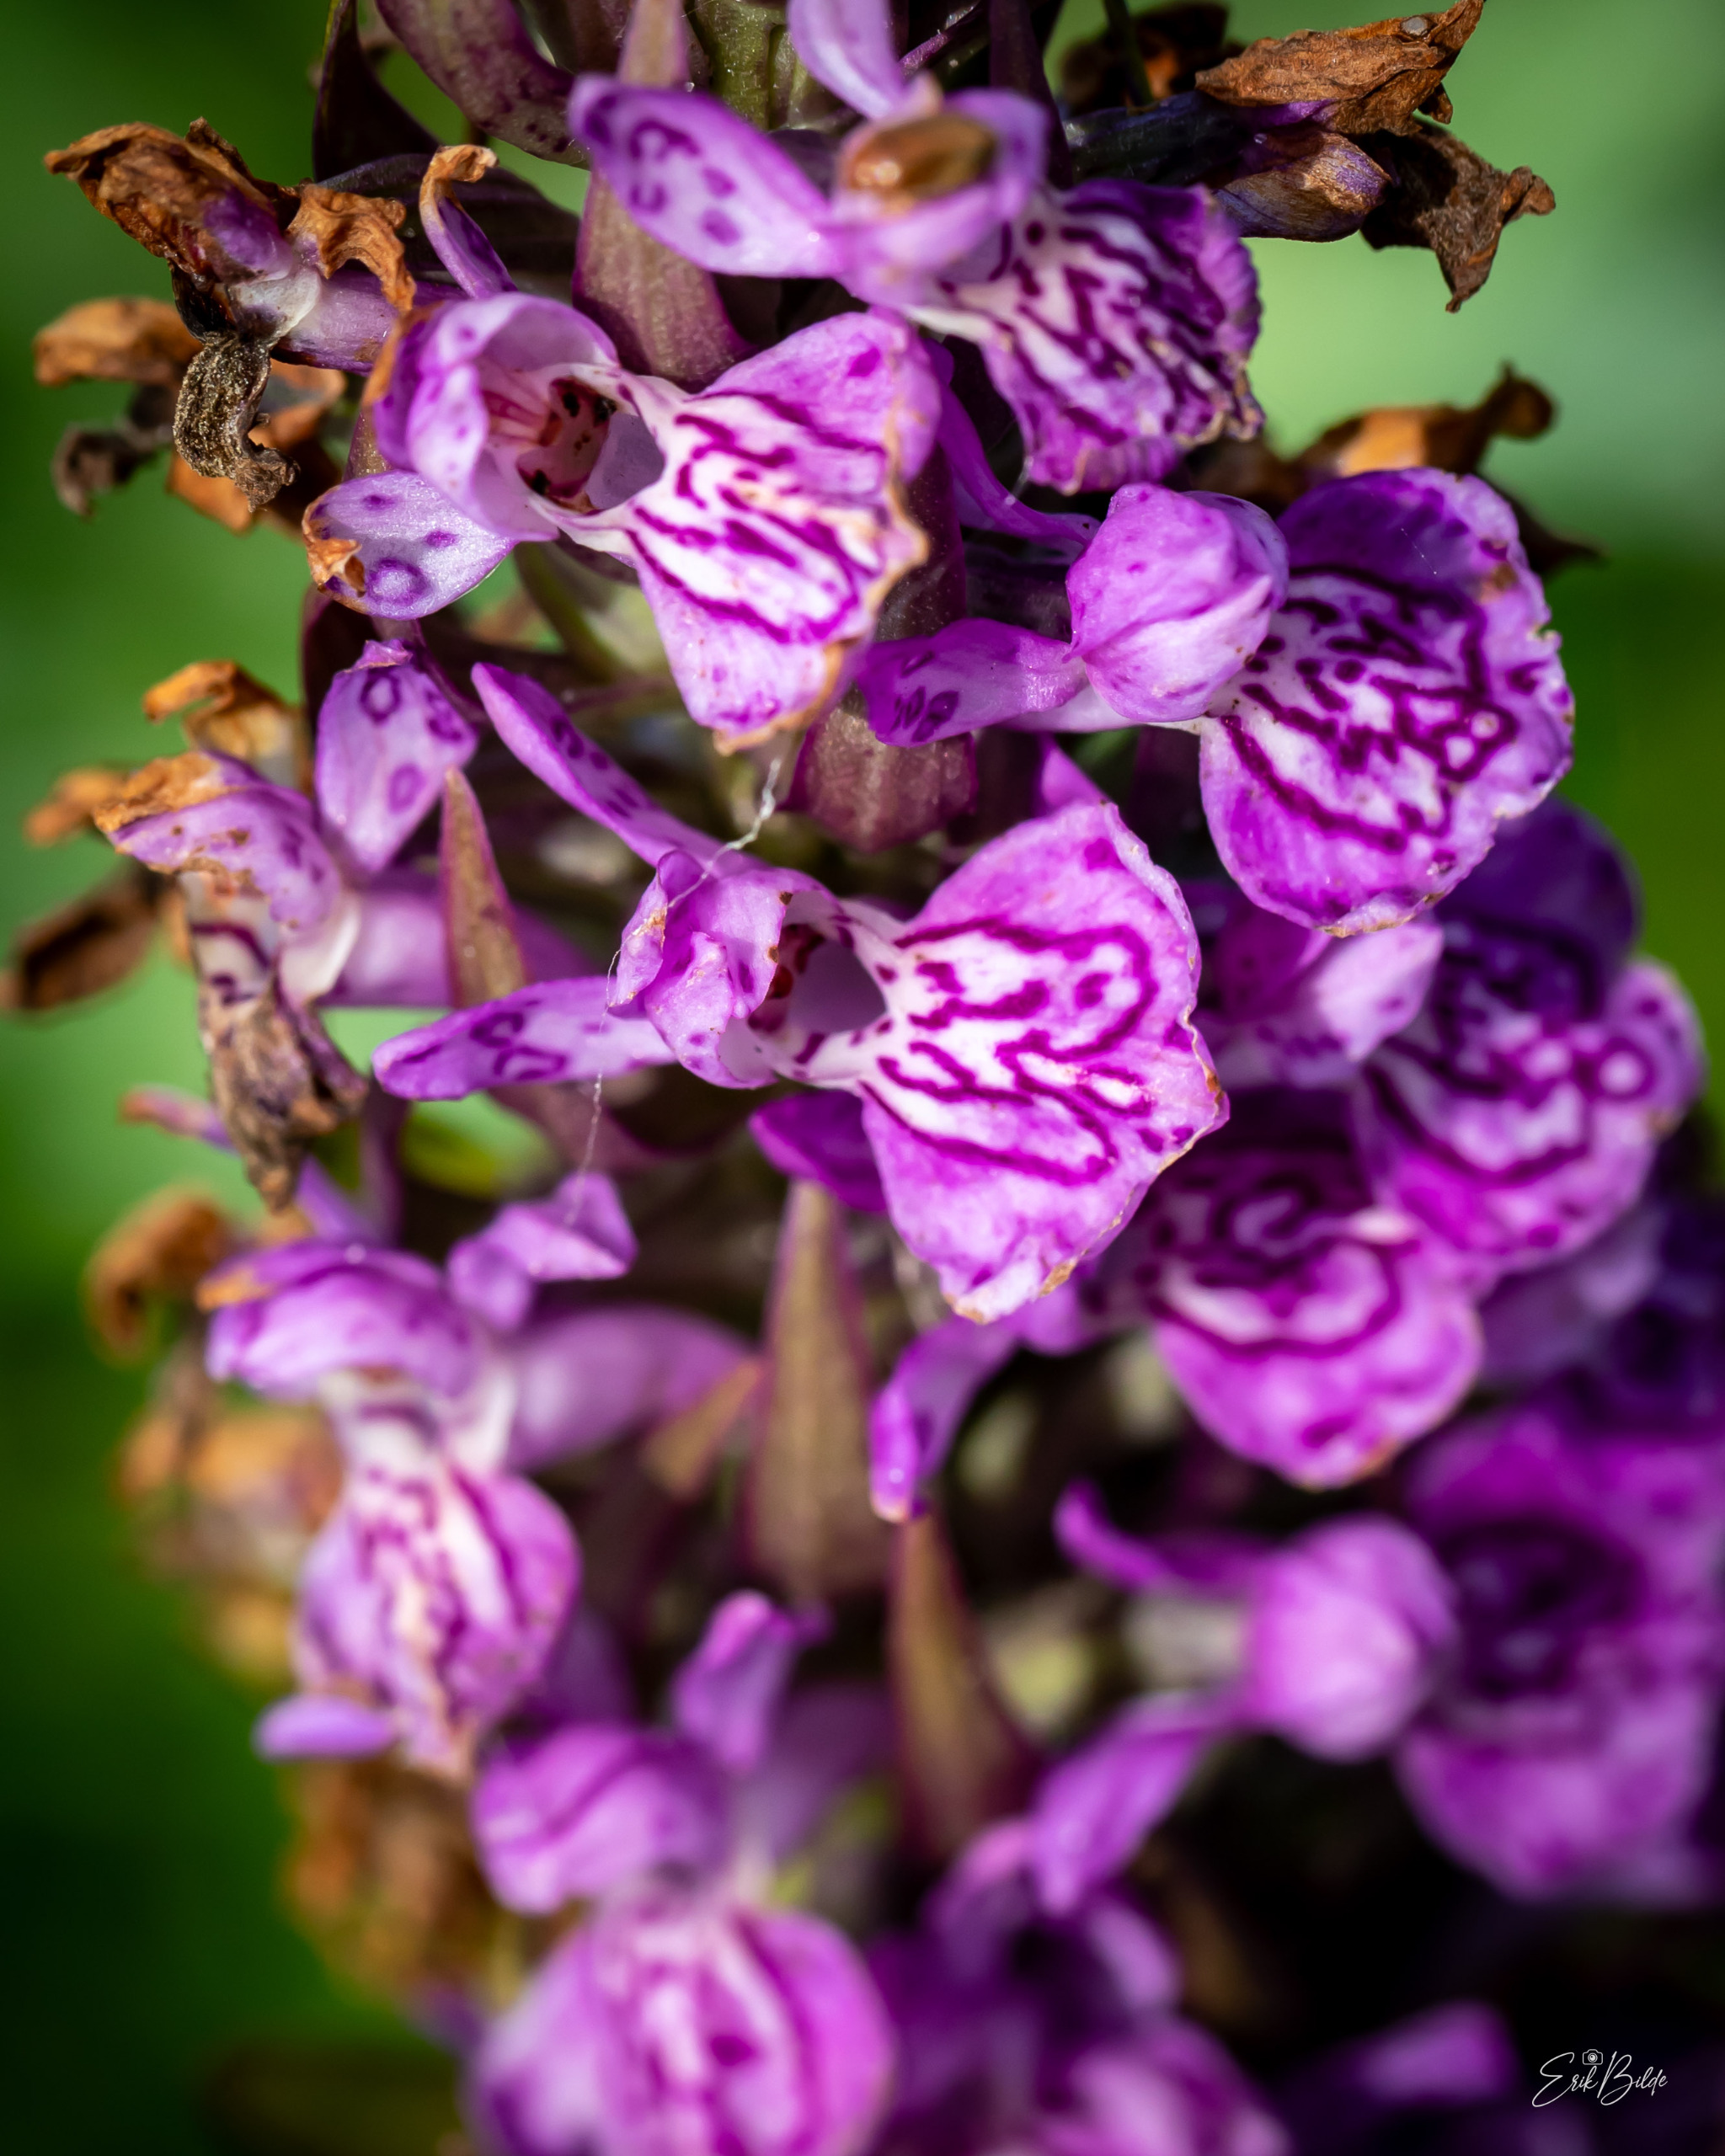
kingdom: Plantae
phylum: Tracheophyta
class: Liliopsida
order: Asparagales
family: Orchidaceae
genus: Dactylorhiza
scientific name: Dactylorhiza majalis
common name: Ringplettet gøgeurt
